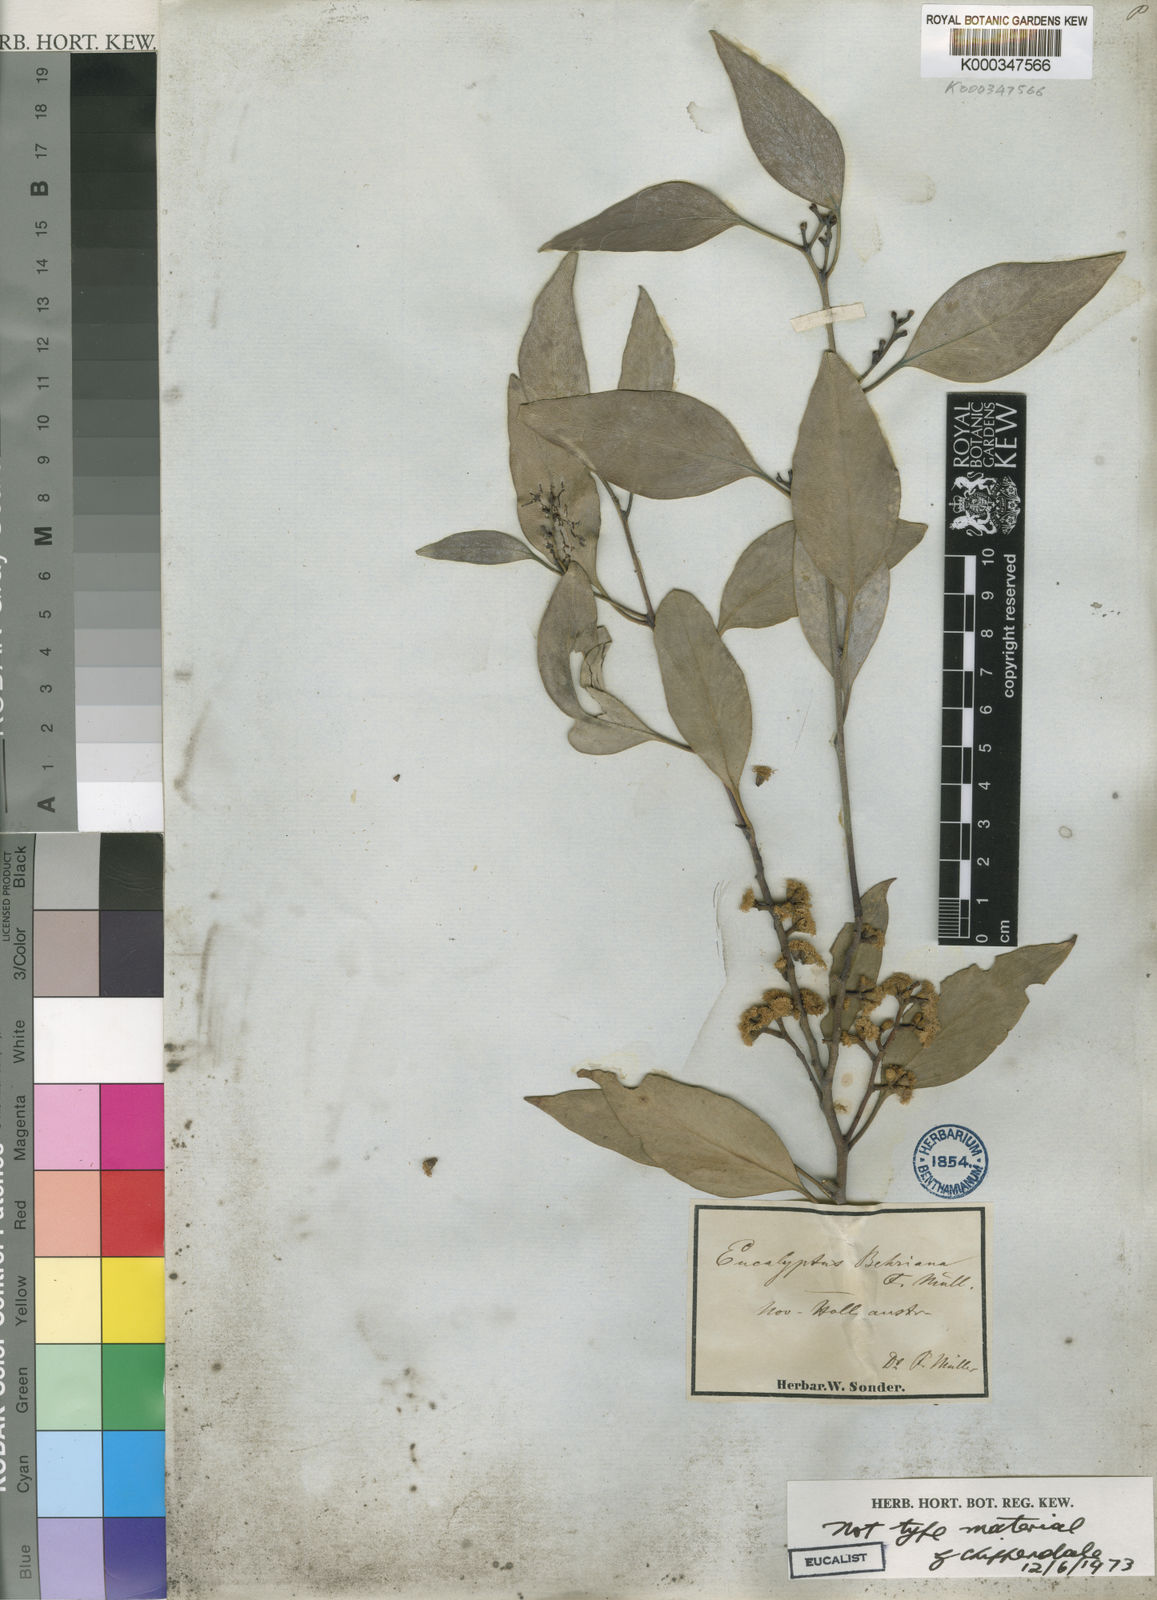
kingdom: Plantae
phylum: Tracheophyta
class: Magnoliopsida
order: Myrtales
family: Myrtaceae
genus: Eucalyptus
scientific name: Eucalyptus behriana
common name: Bull mallee
